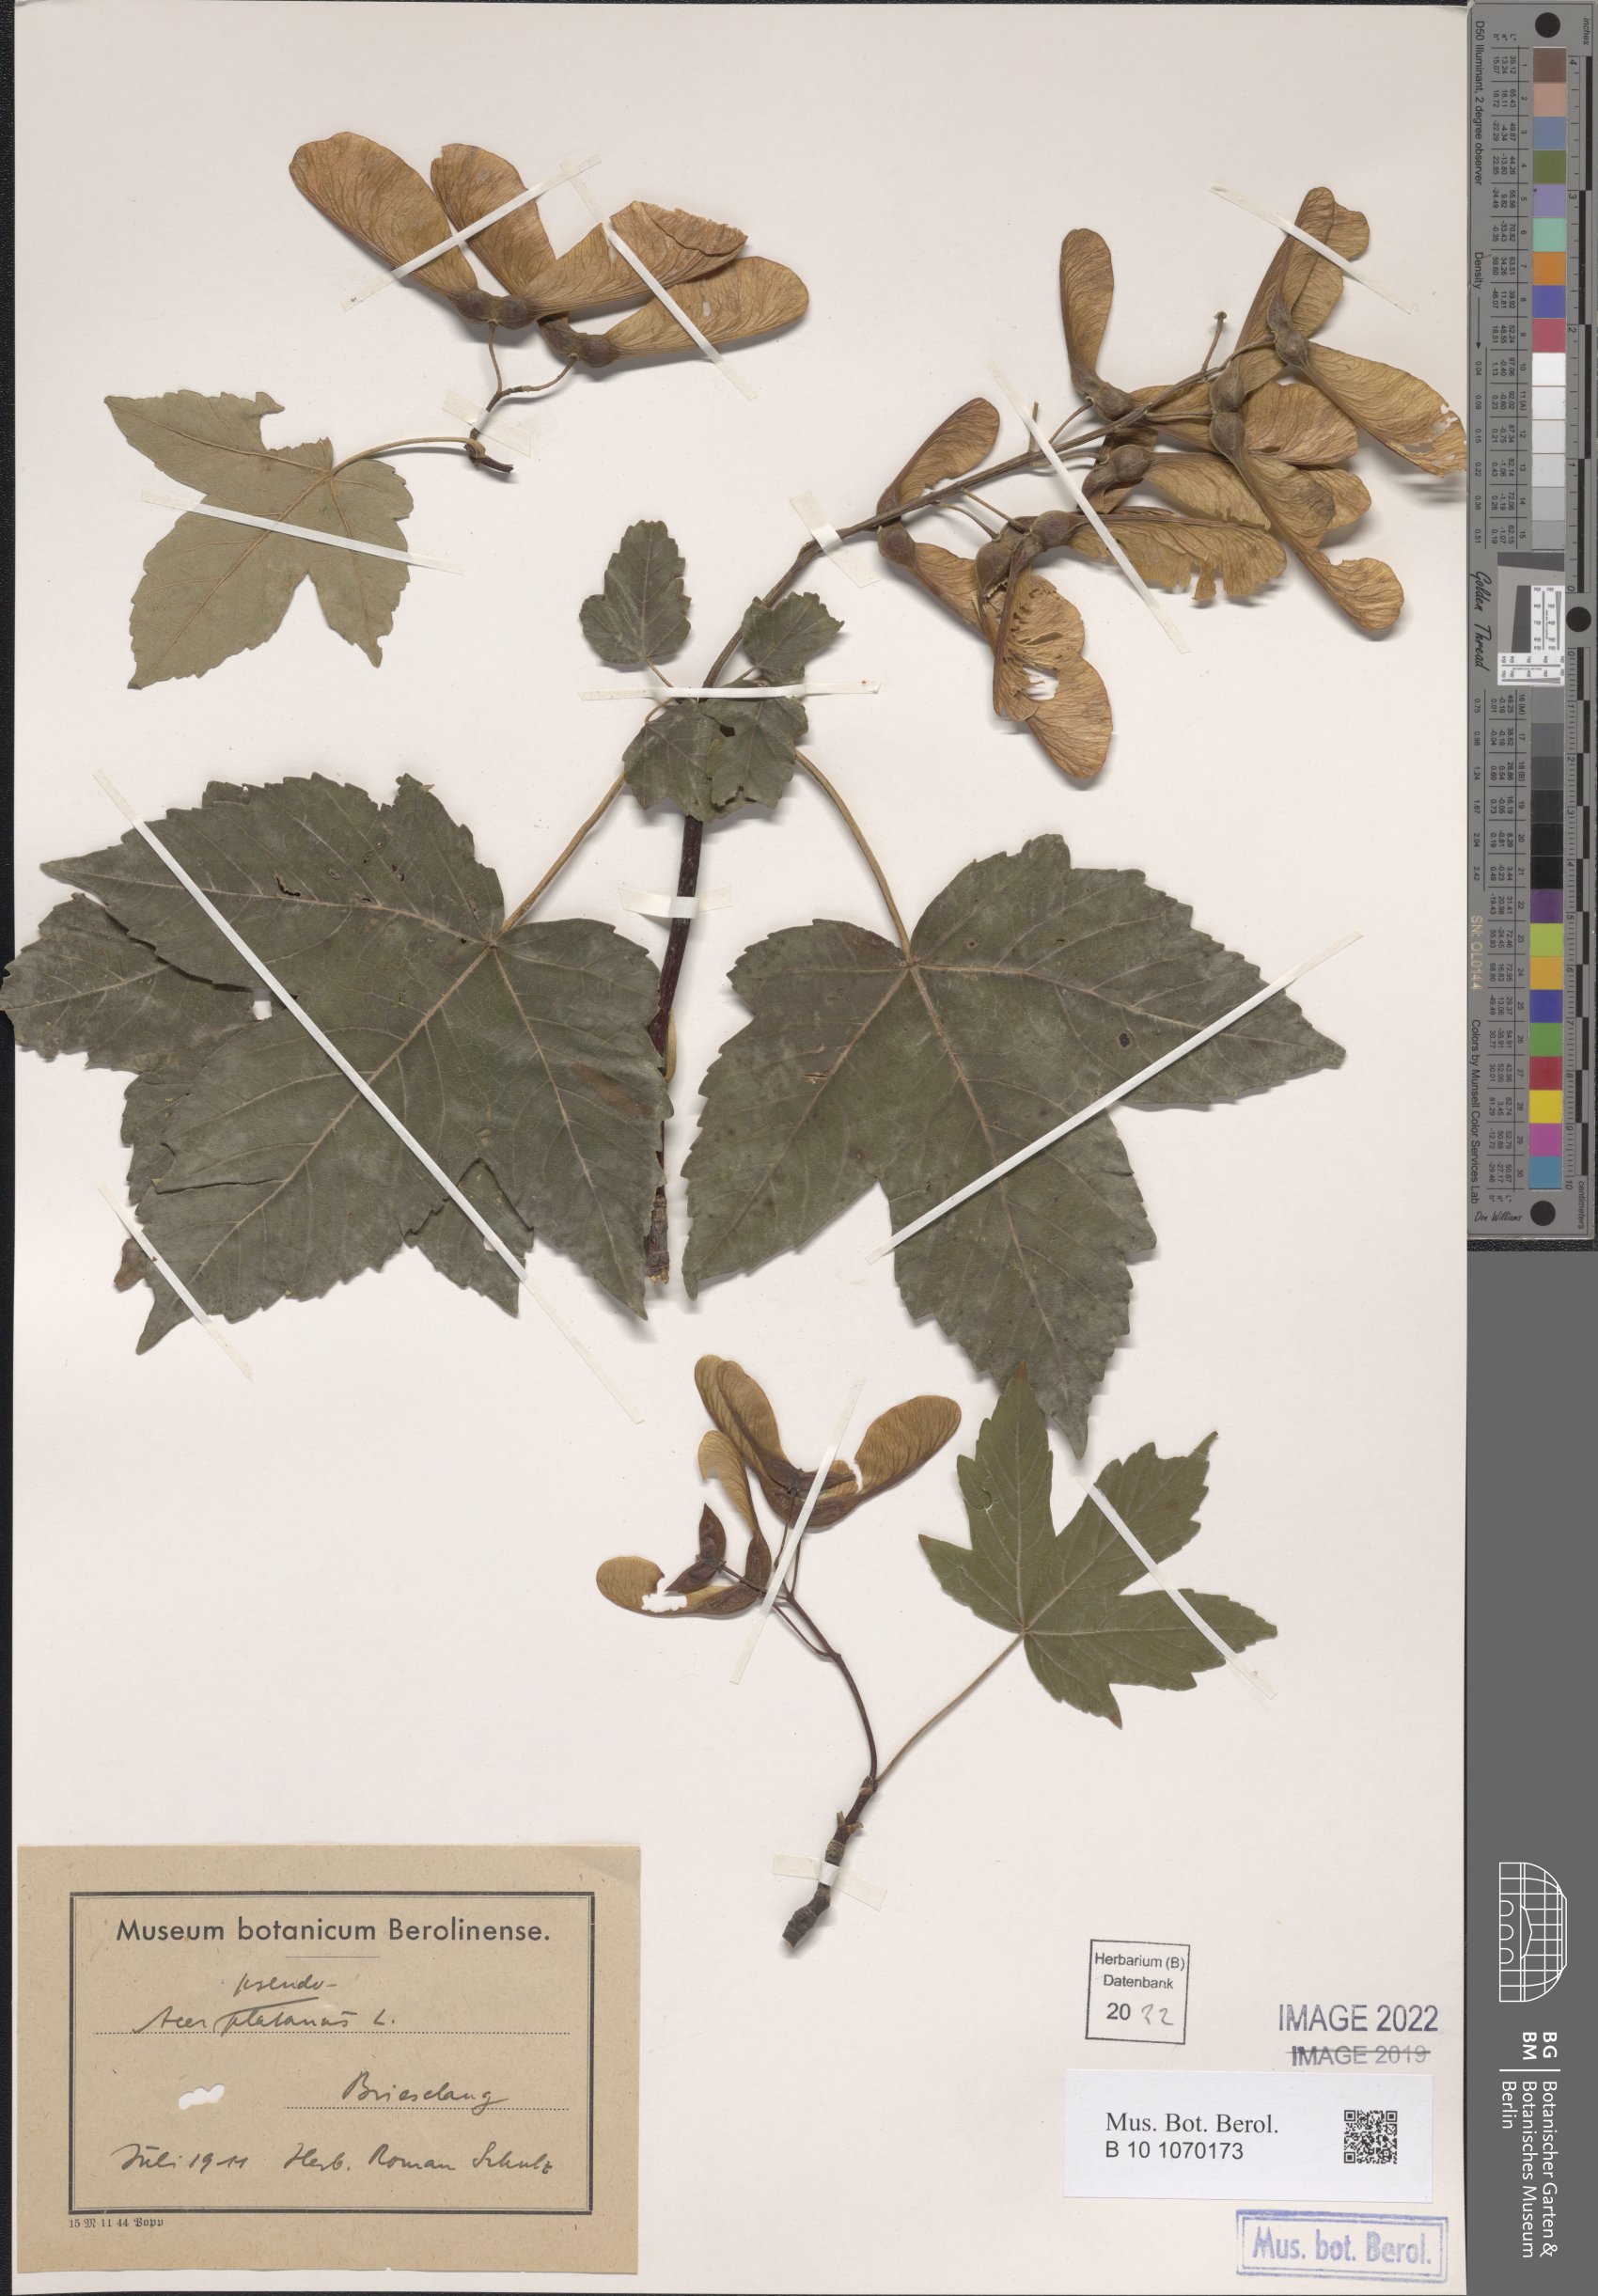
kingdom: Plantae
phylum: Tracheophyta
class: Magnoliopsida
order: Sapindales
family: Sapindaceae
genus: Acer
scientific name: Acer pseudoplatanus
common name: Sycamore
